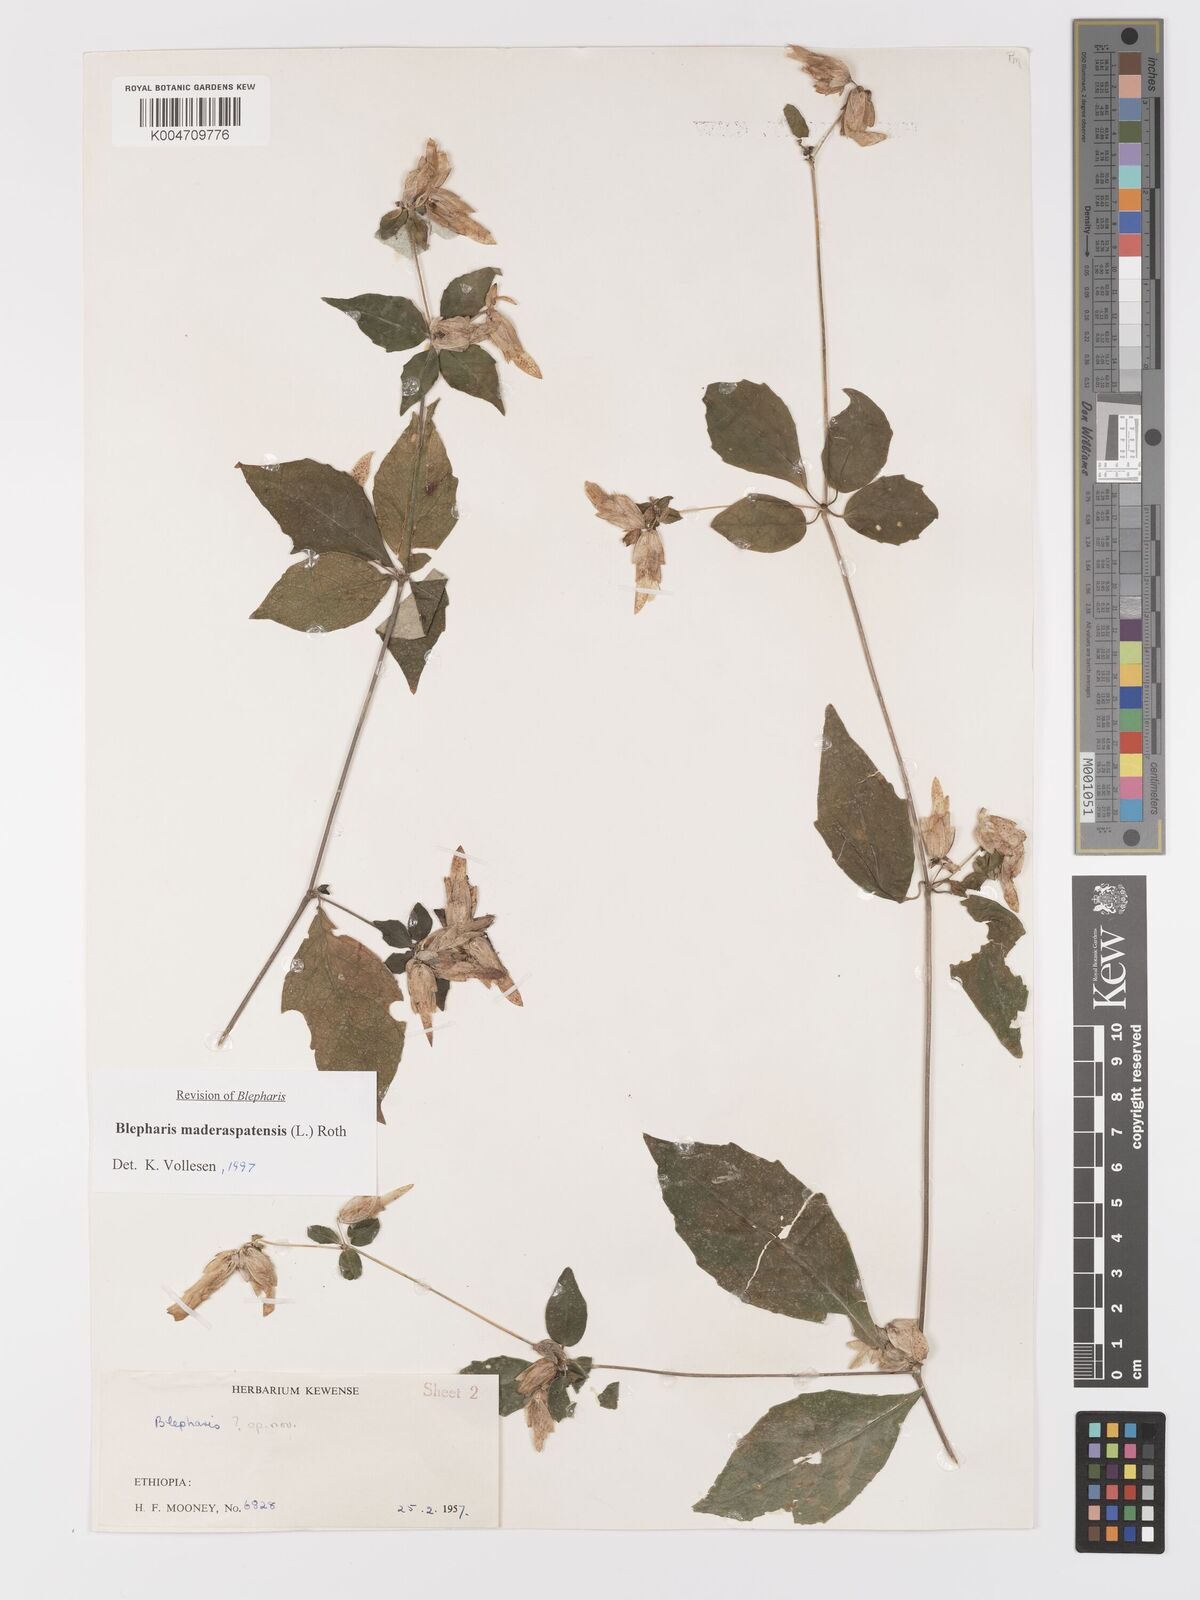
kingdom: Plantae
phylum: Tracheophyta
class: Magnoliopsida
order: Lamiales
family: Acanthaceae
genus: Blepharis
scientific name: Blepharis maderaspatensis
